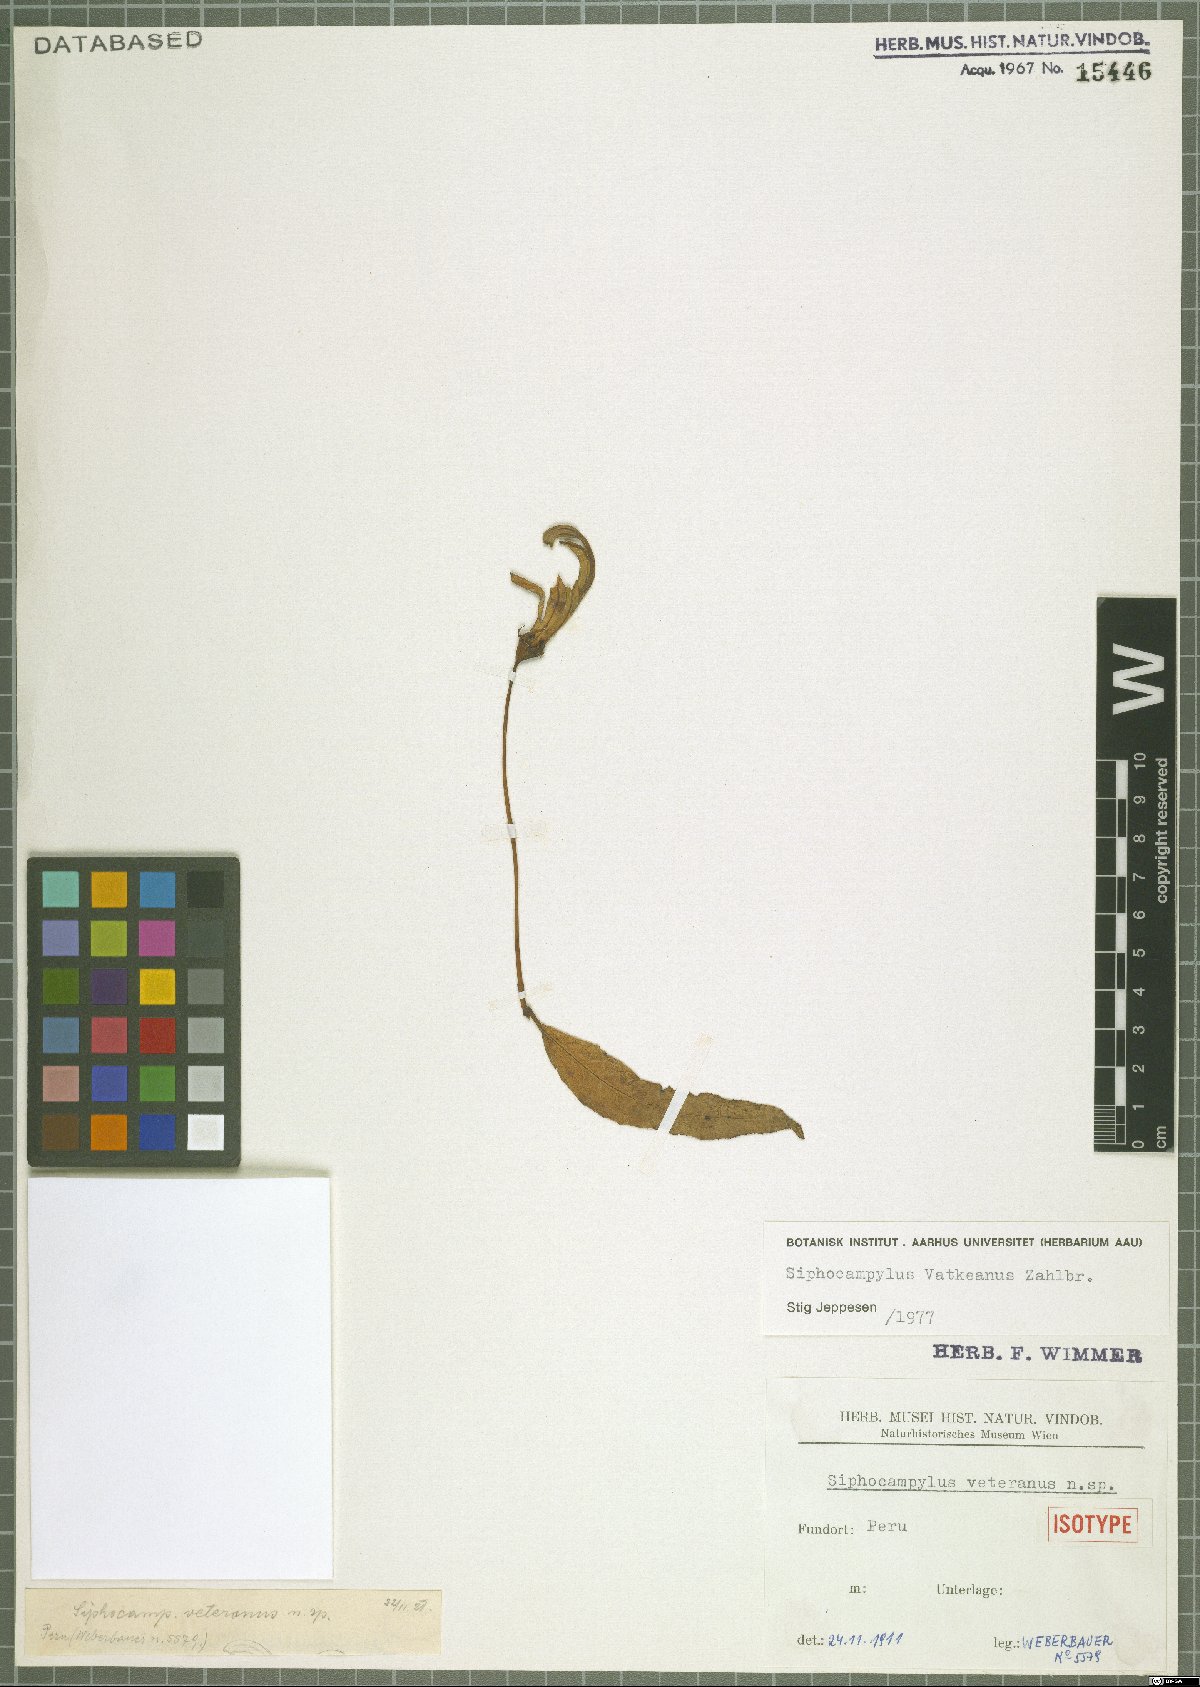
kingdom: Plantae
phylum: Tracheophyta
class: Magnoliopsida
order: Asterales
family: Campanulaceae
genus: Siphocampylus
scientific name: Siphocampylus vatkeanus
